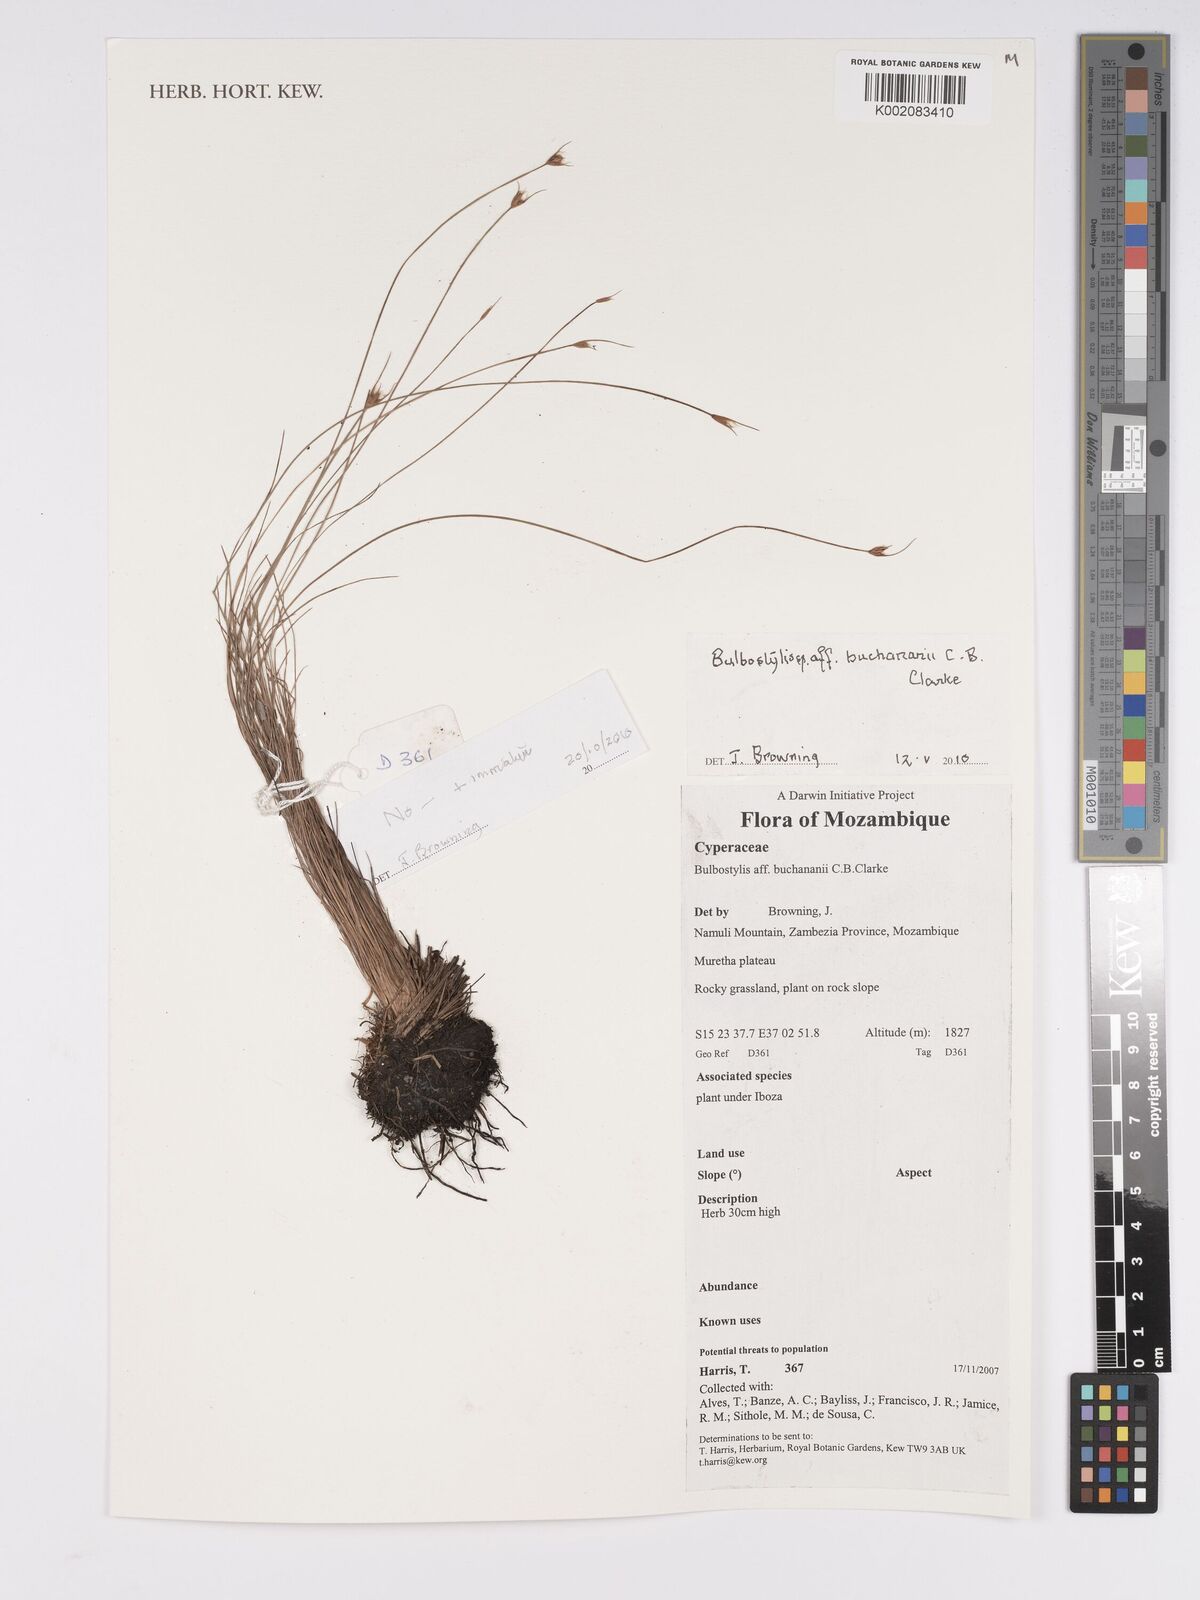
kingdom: Plantae
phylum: Tracheophyta
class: Liliopsida
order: Poales
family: Cyperaceae
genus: Bulbostylis
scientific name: Bulbostylis buchananii
